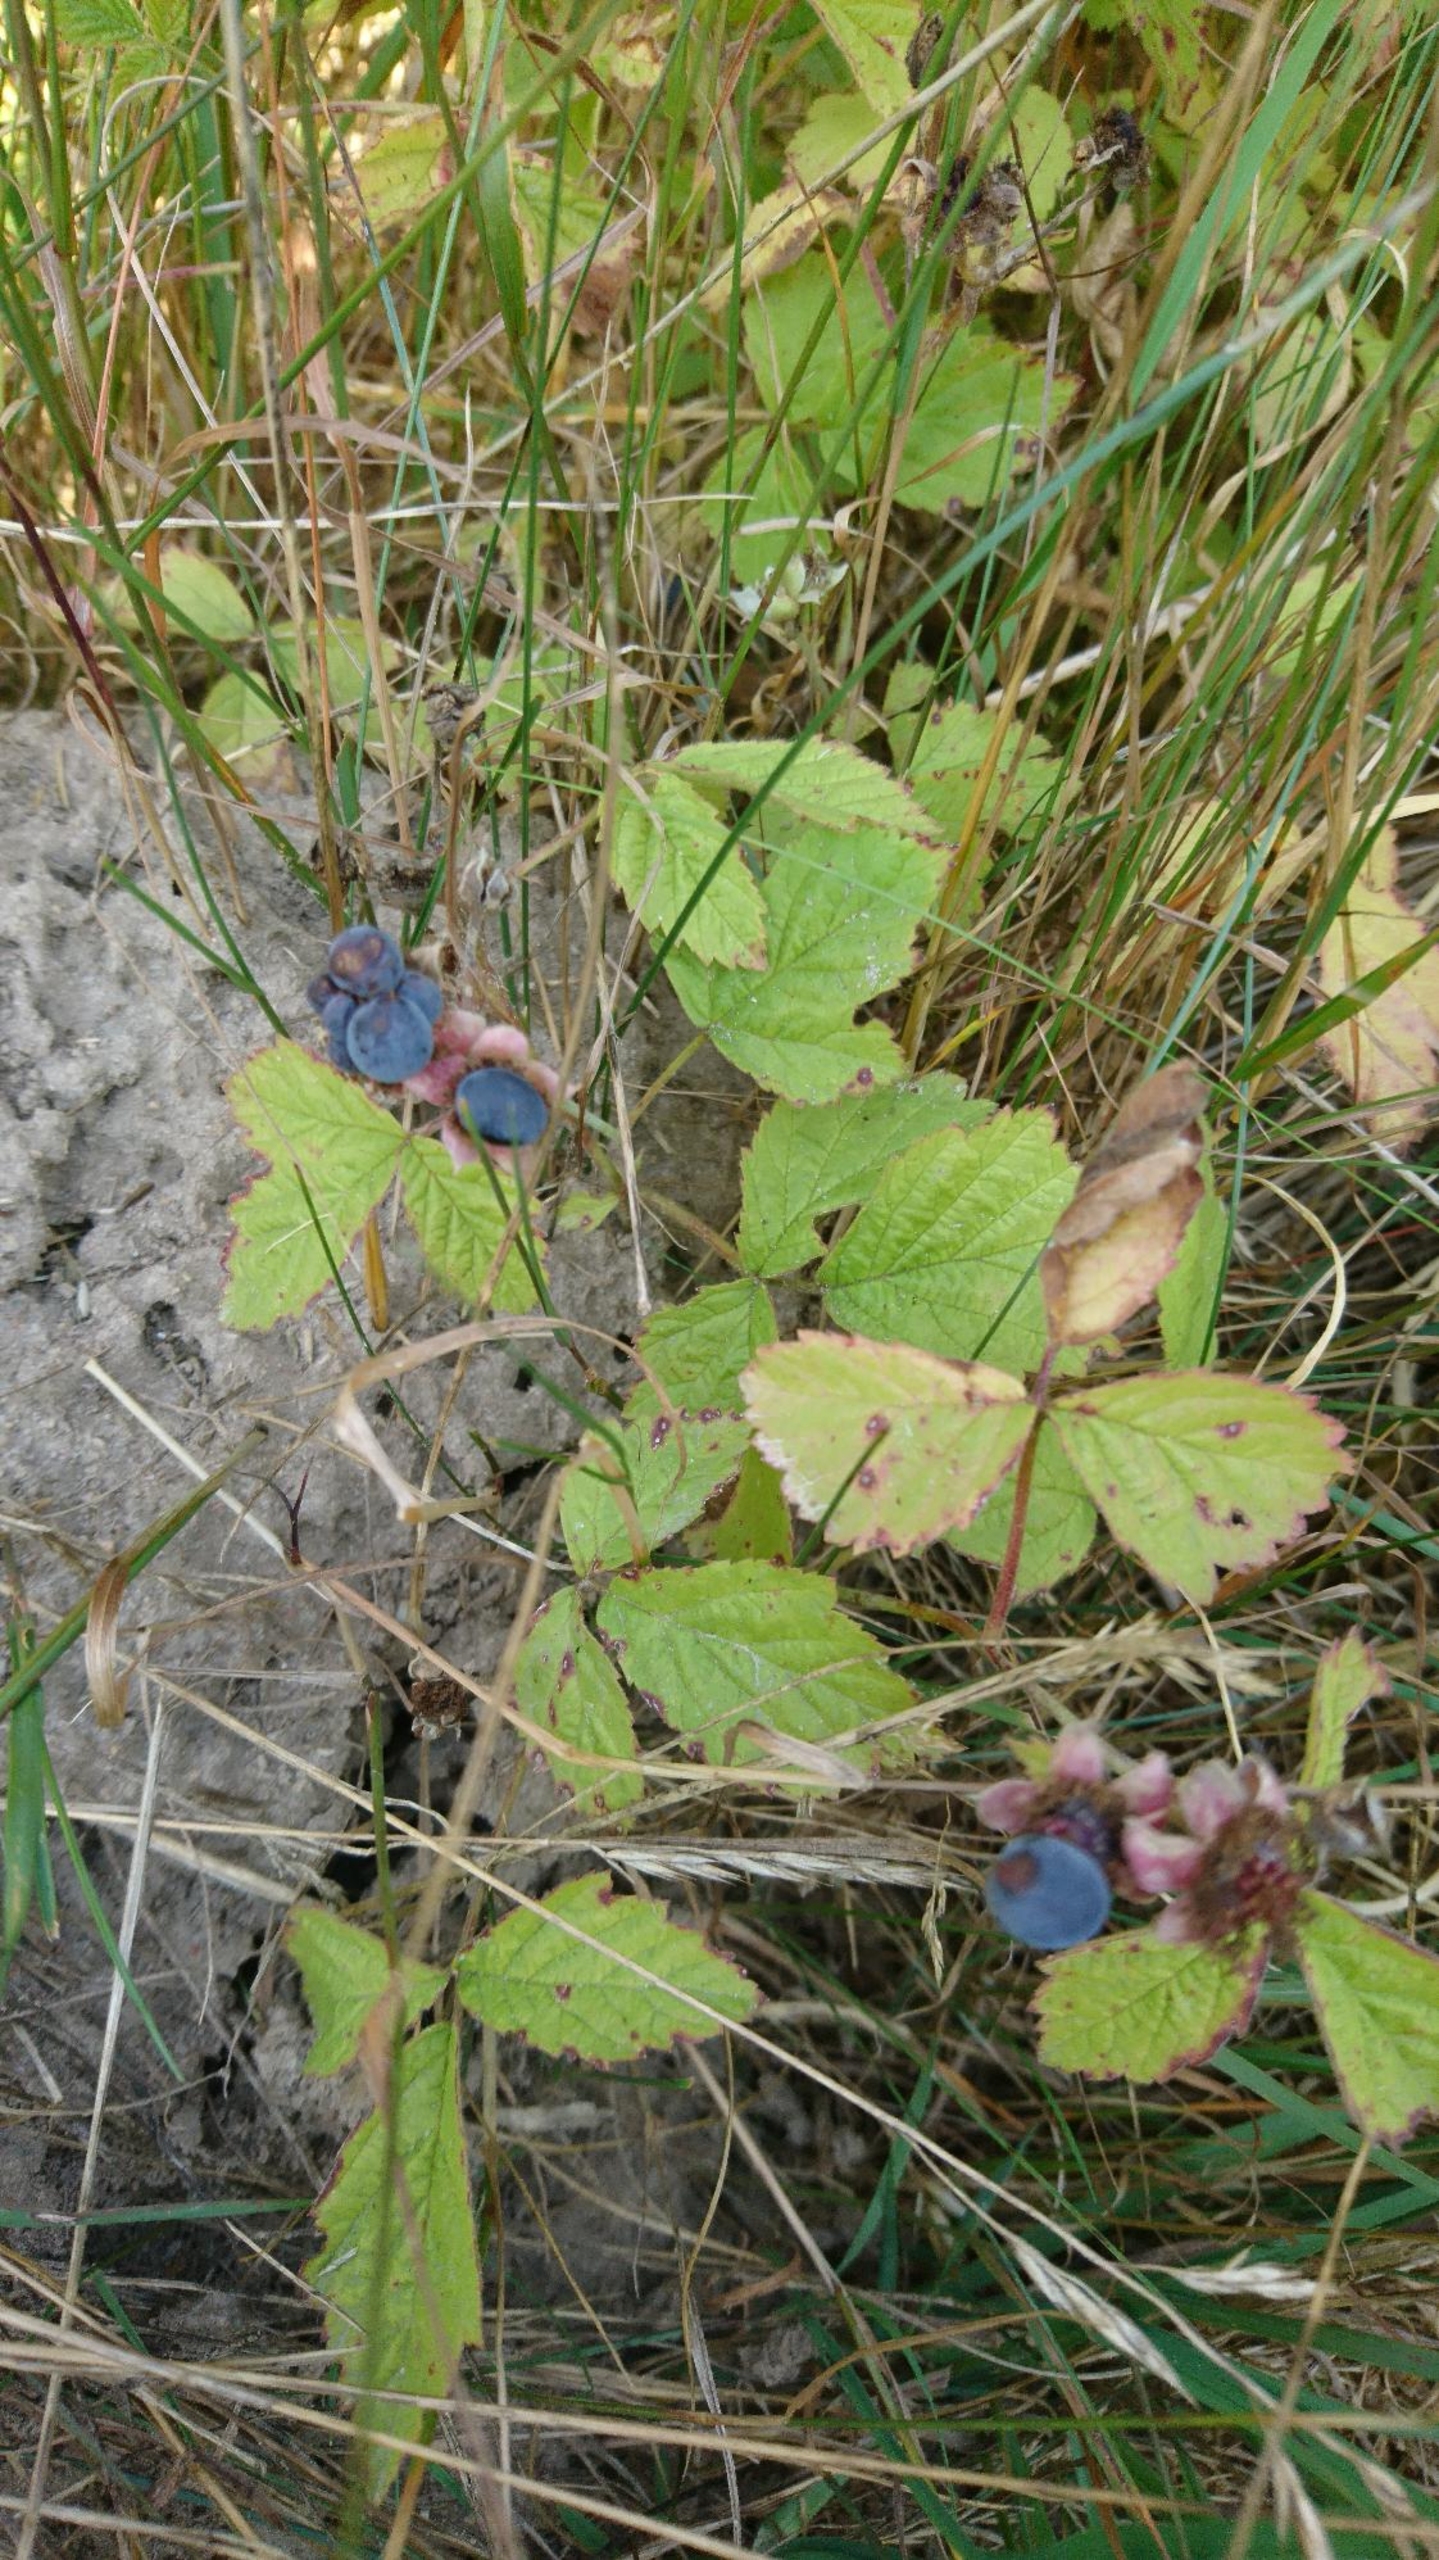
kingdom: Plantae
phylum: Tracheophyta
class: Magnoliopsida
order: Rosales
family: Rosaceae
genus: Rubus
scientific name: Rubus caesius
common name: Korbær
